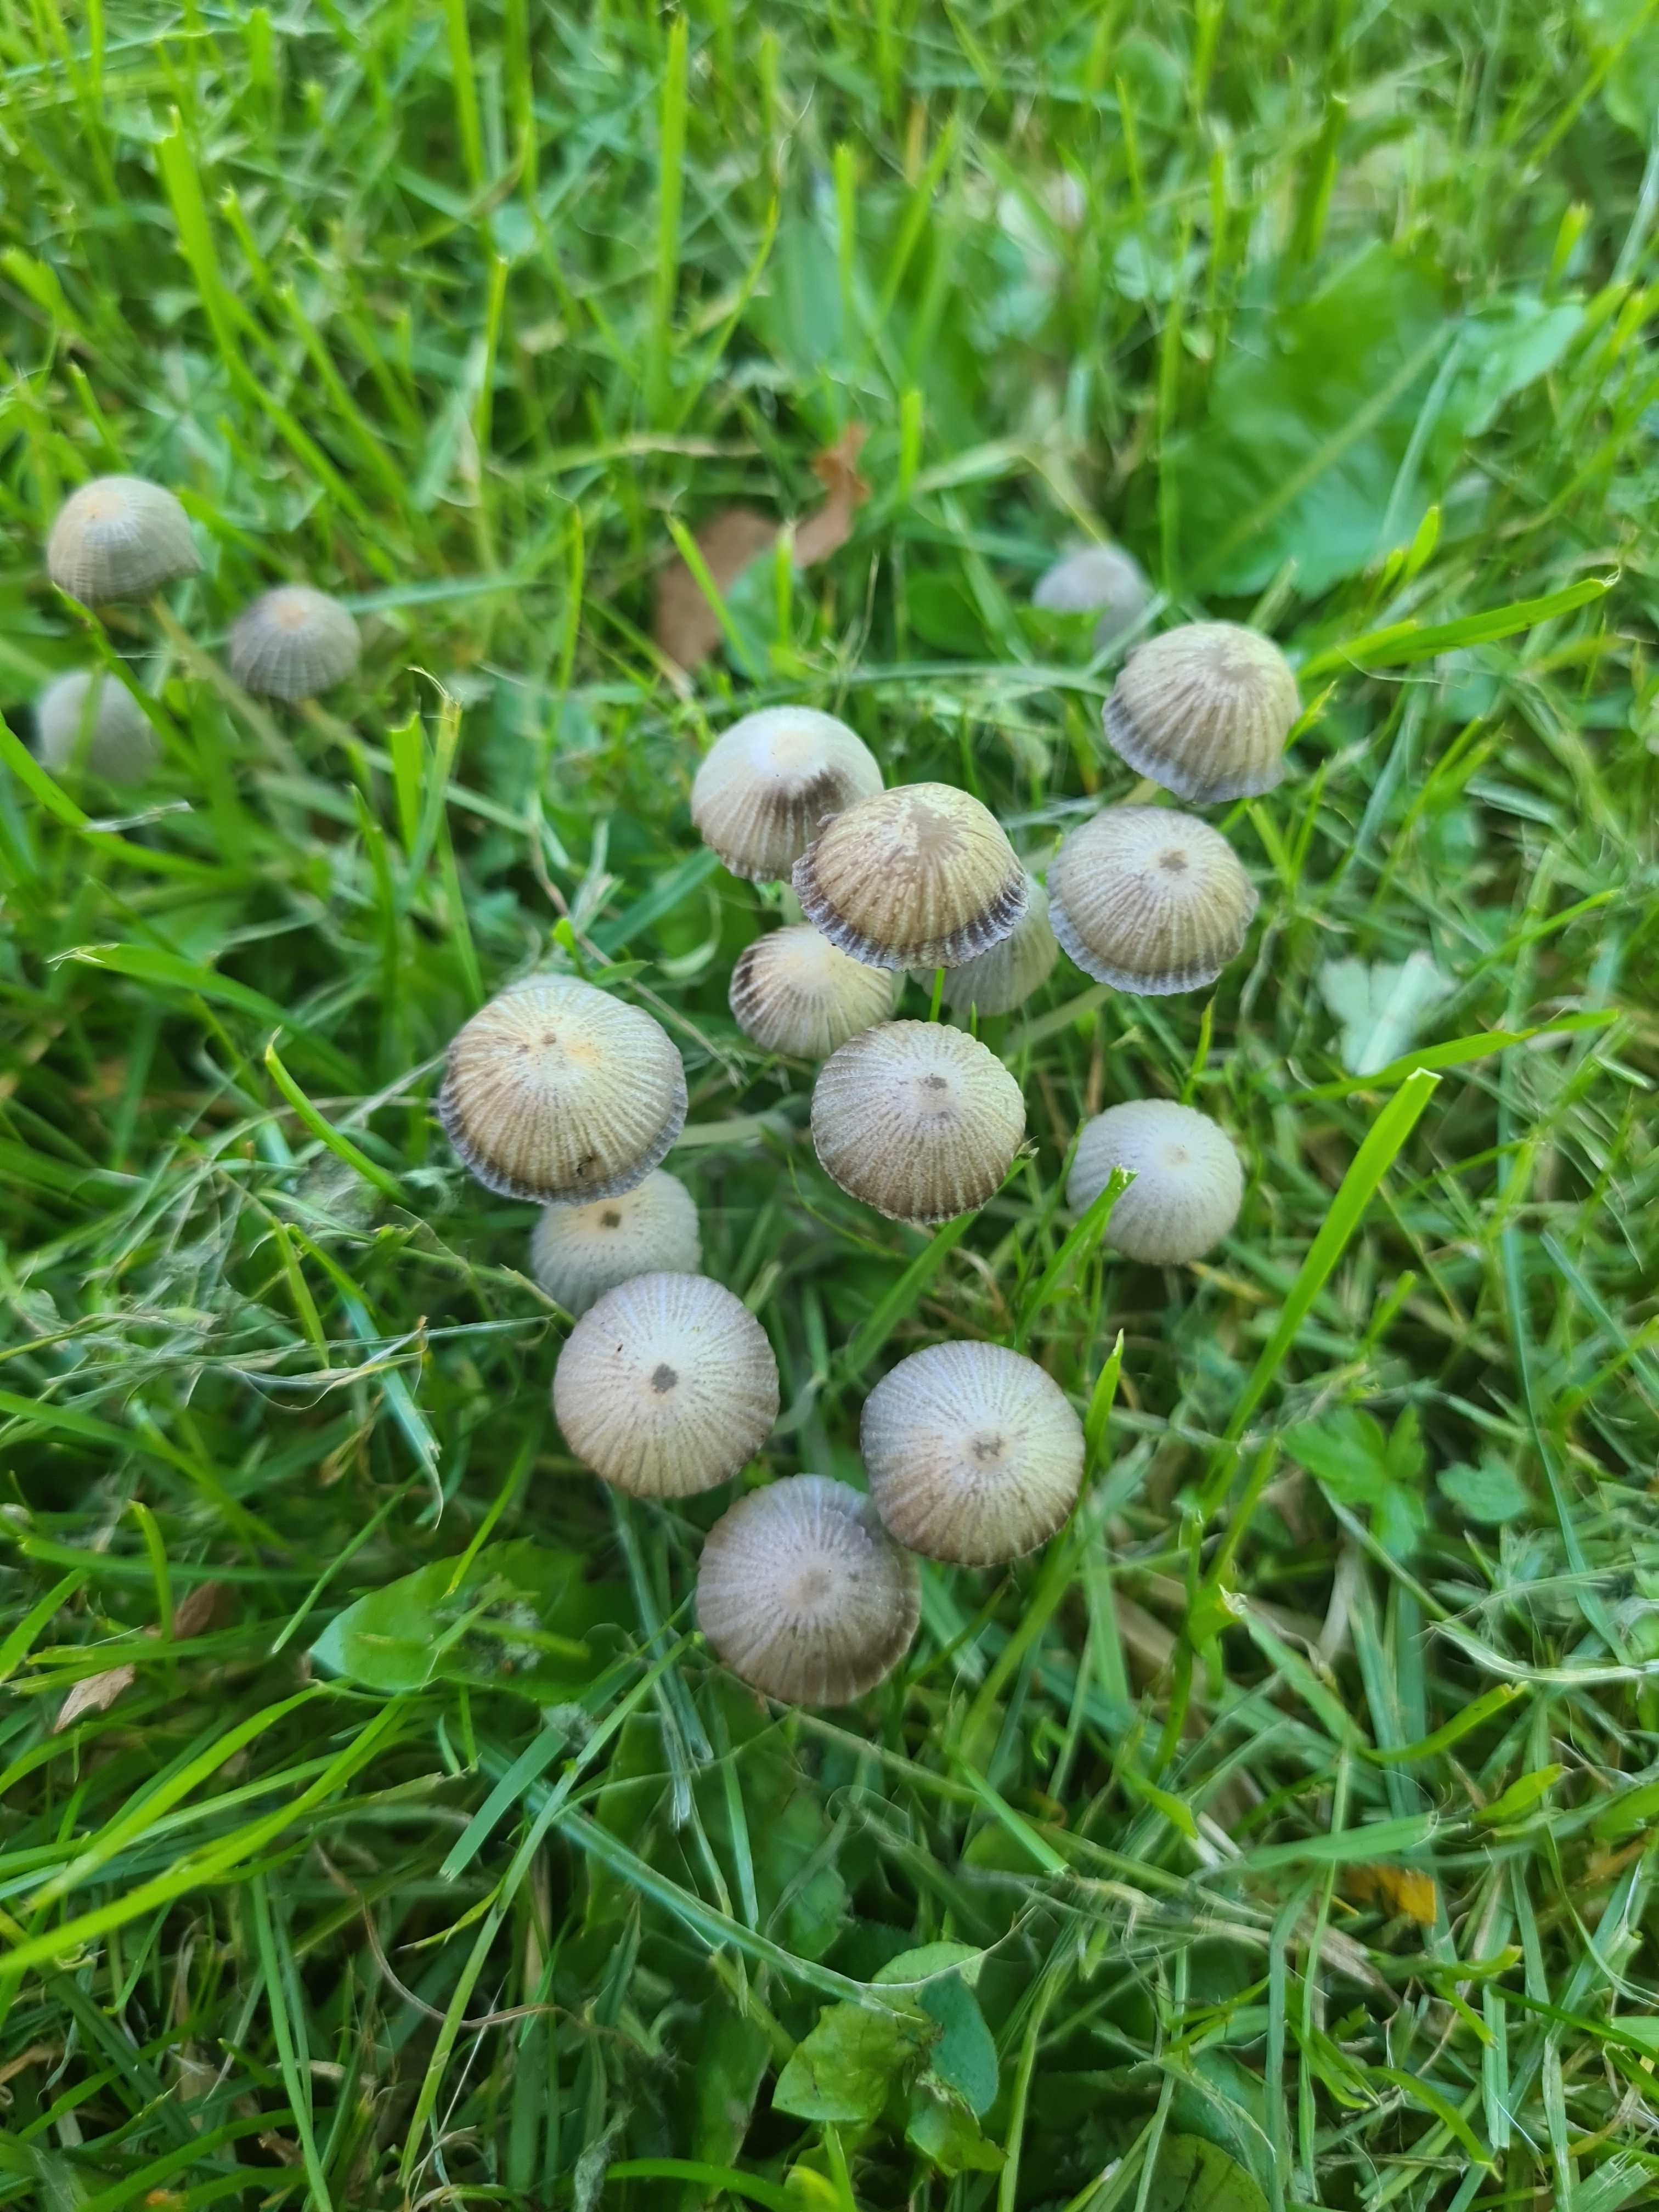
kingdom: Fungi
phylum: Basidiomycota
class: Agaricomycetes
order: Agaricales
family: Psathyrellaceae
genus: Coprinellus
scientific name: Coprinellus disseminatus
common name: bredsået blækhat
